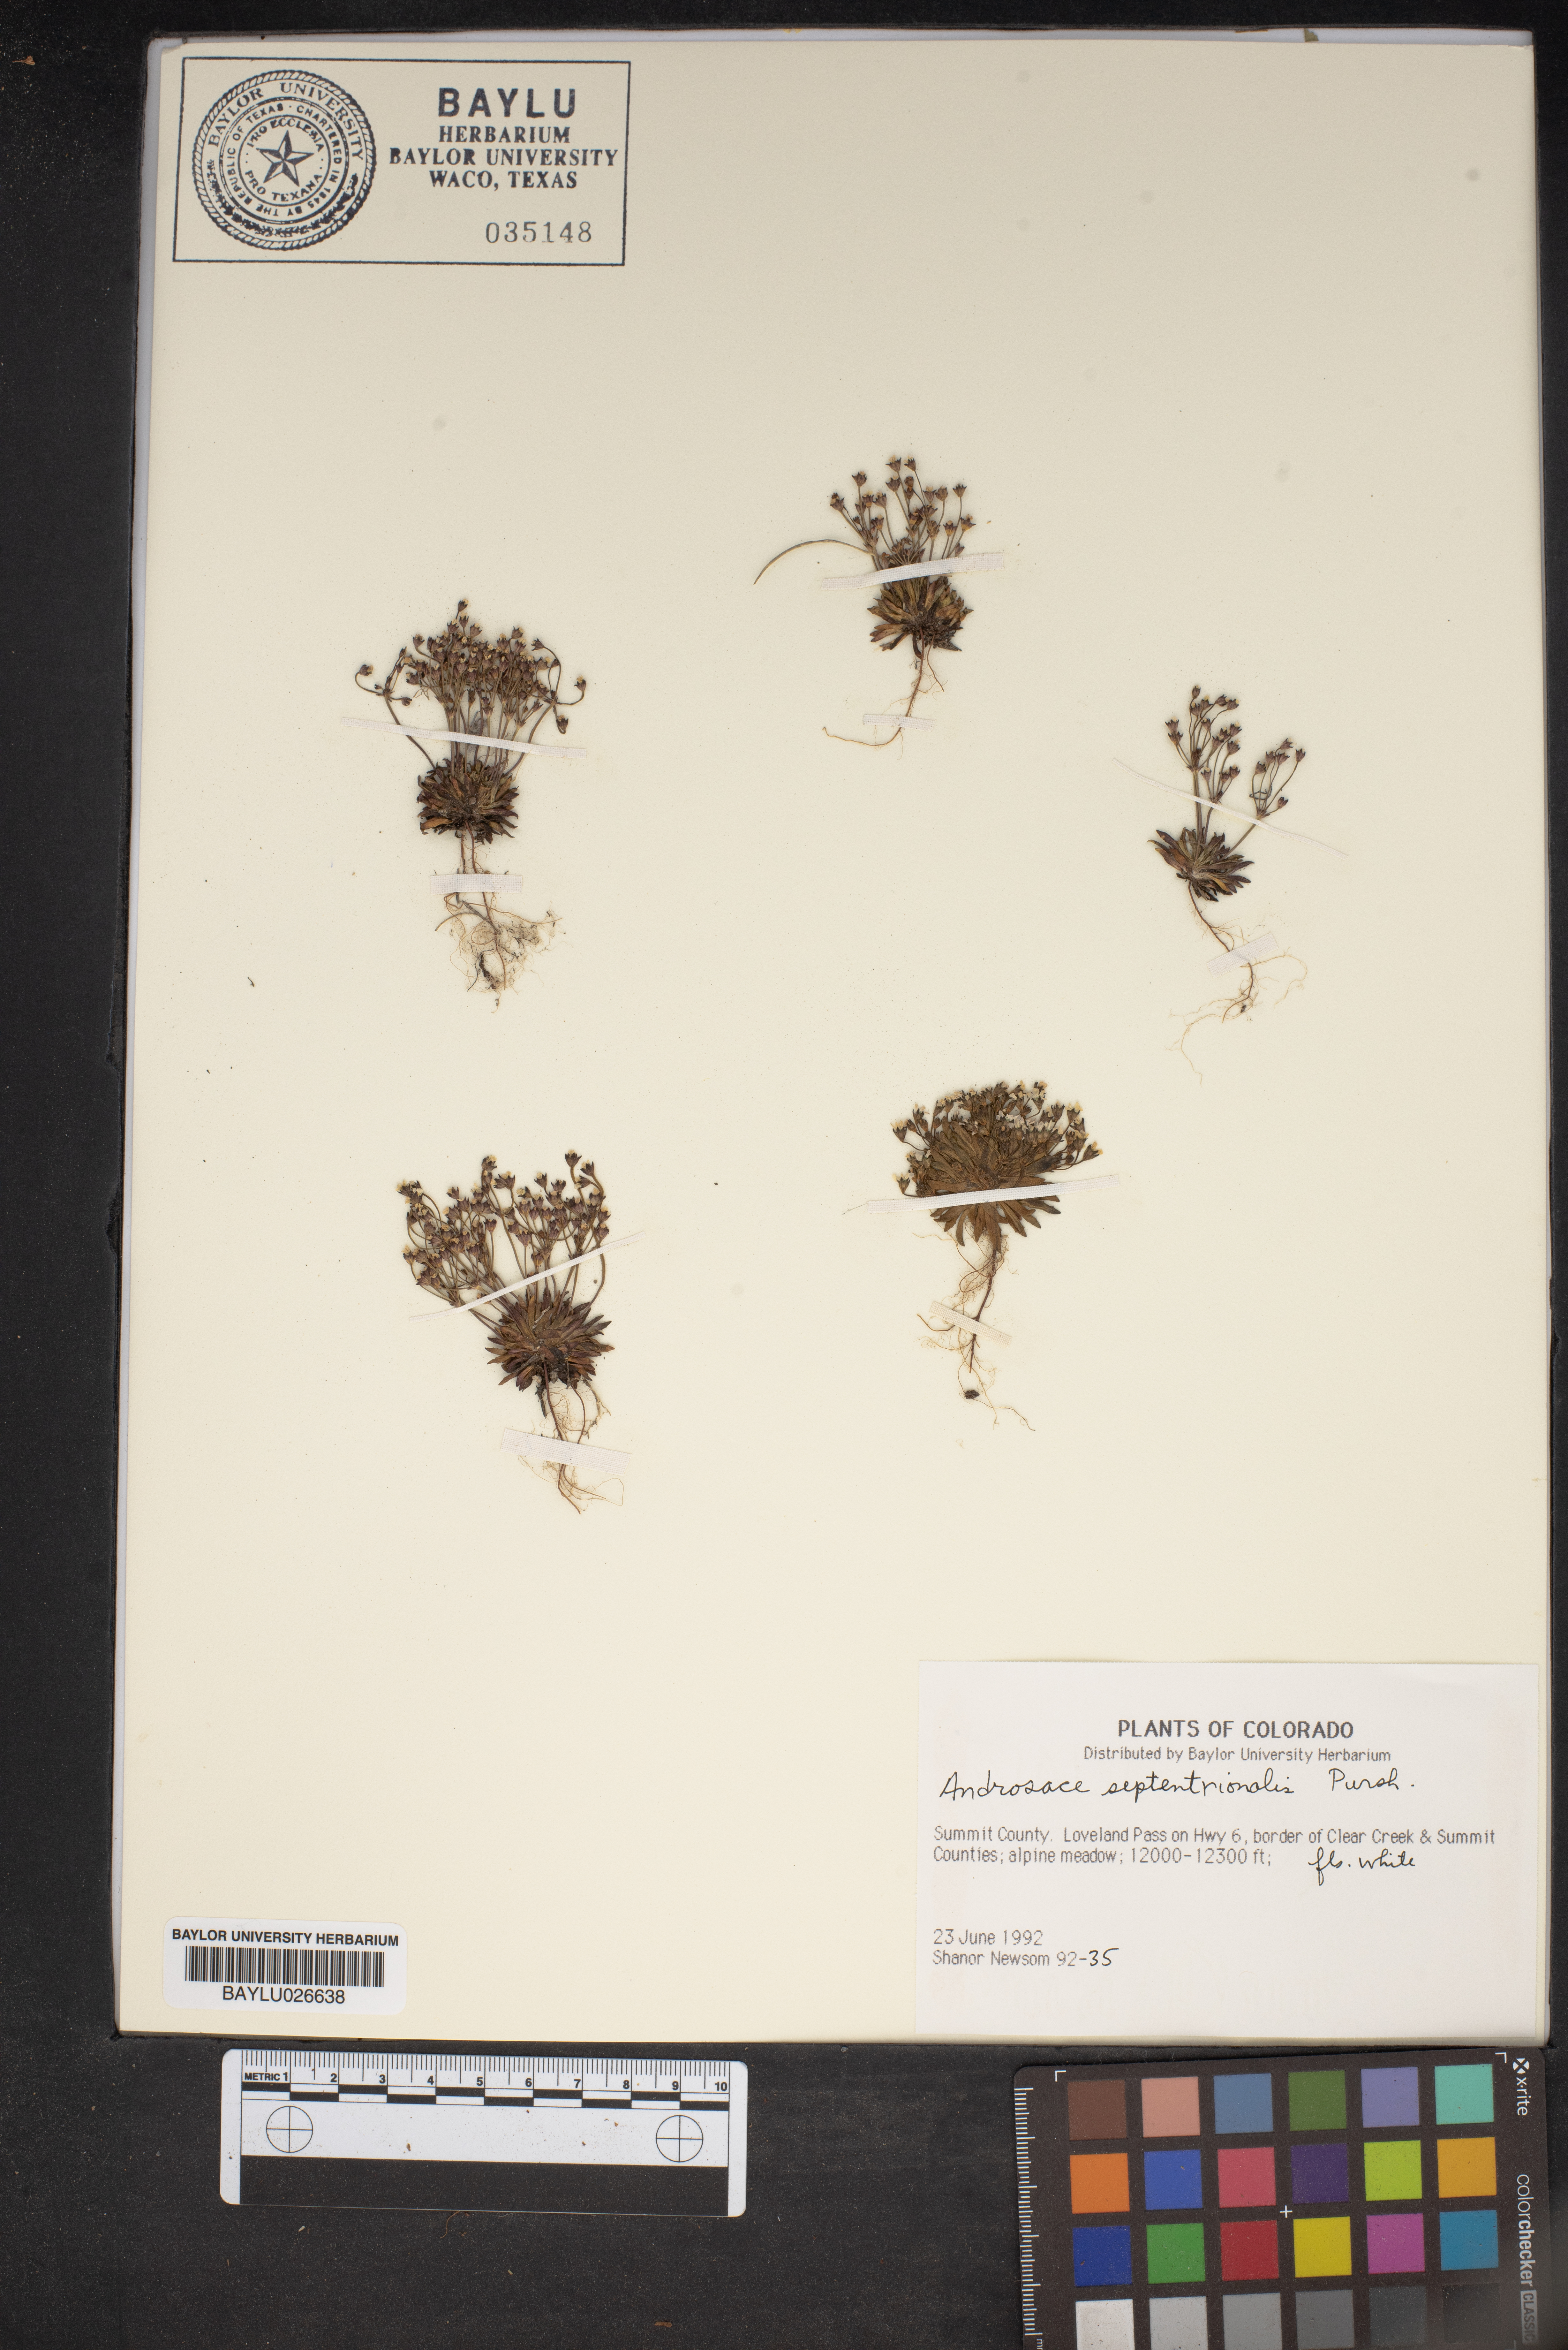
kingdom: Plantae
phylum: Tracheophyta
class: Magnoliopsida
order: Ericales
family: Primulaceae
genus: Androsace
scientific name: Androsace septentrionalis
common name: Hairy northern fairy-candelabra
